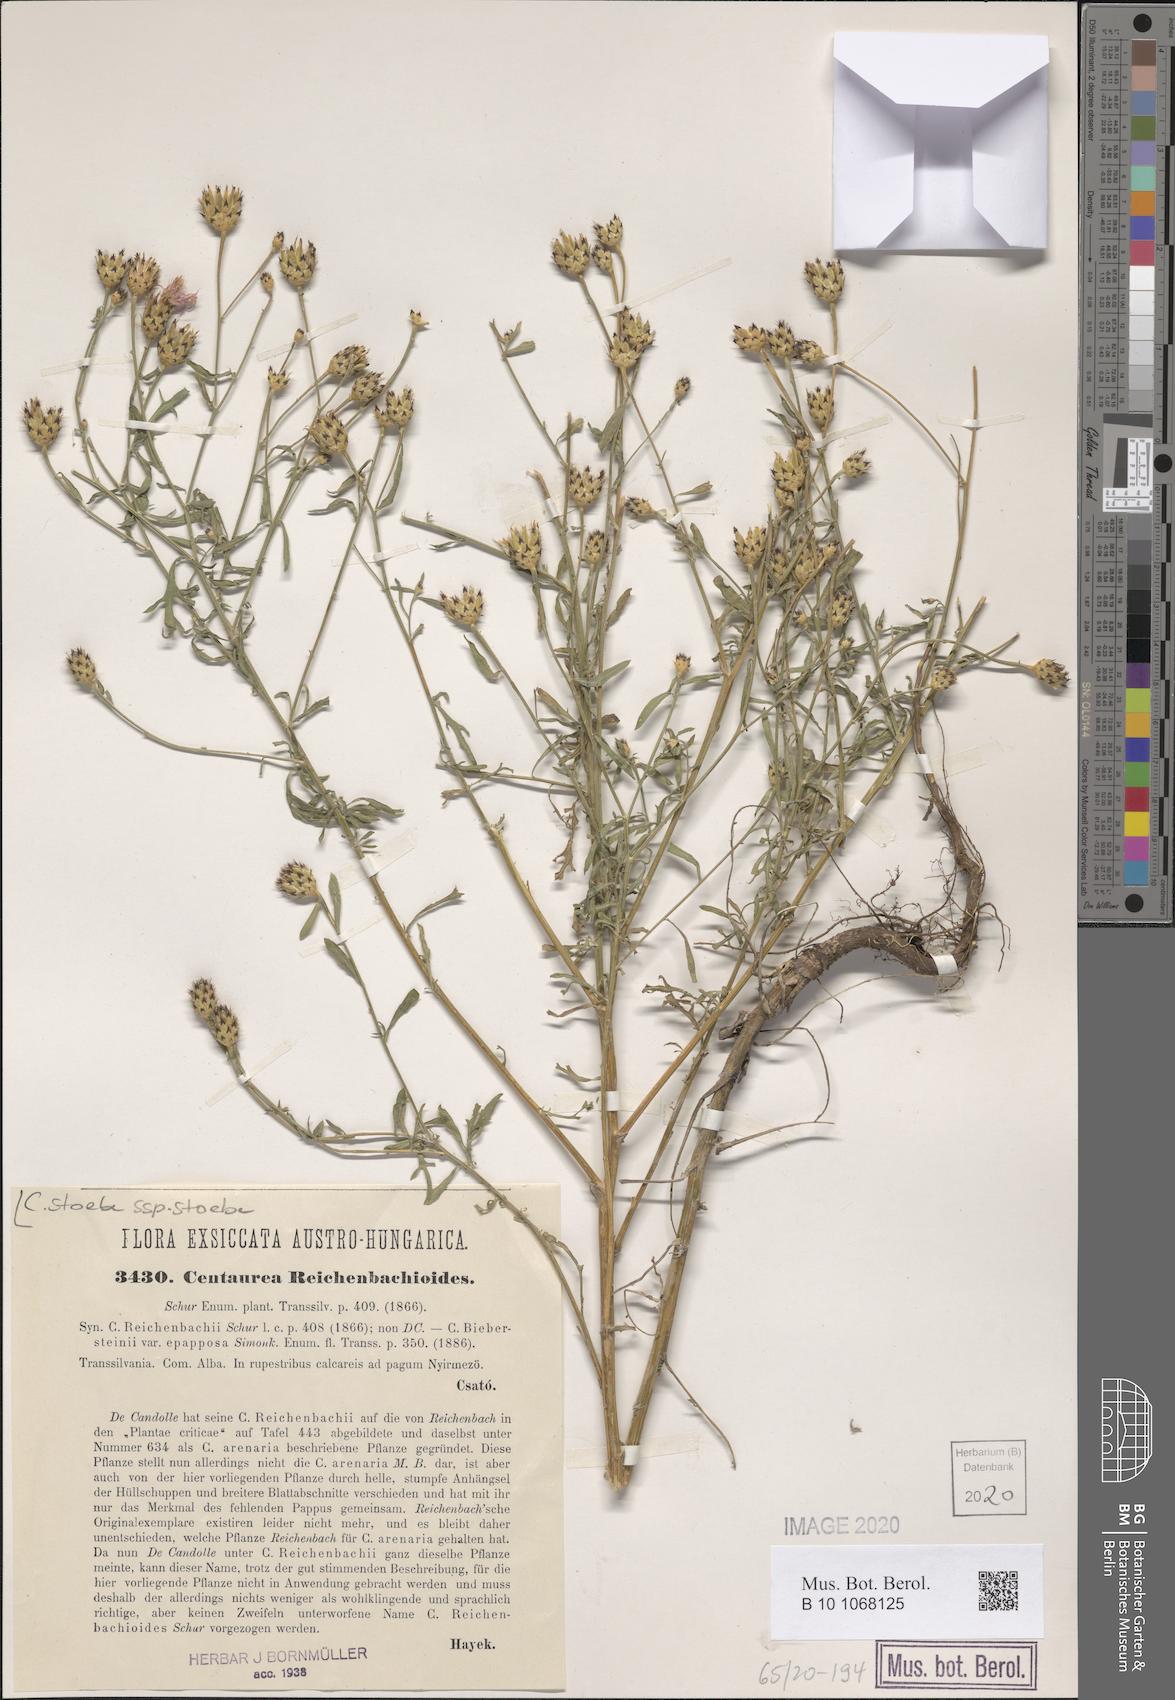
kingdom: Plantae
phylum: Tracheophyta
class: Magnoliopsida
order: Asterales
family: Asteraceae
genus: Centaurea
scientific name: Centaurea stoebe
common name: Spotted knapweed
